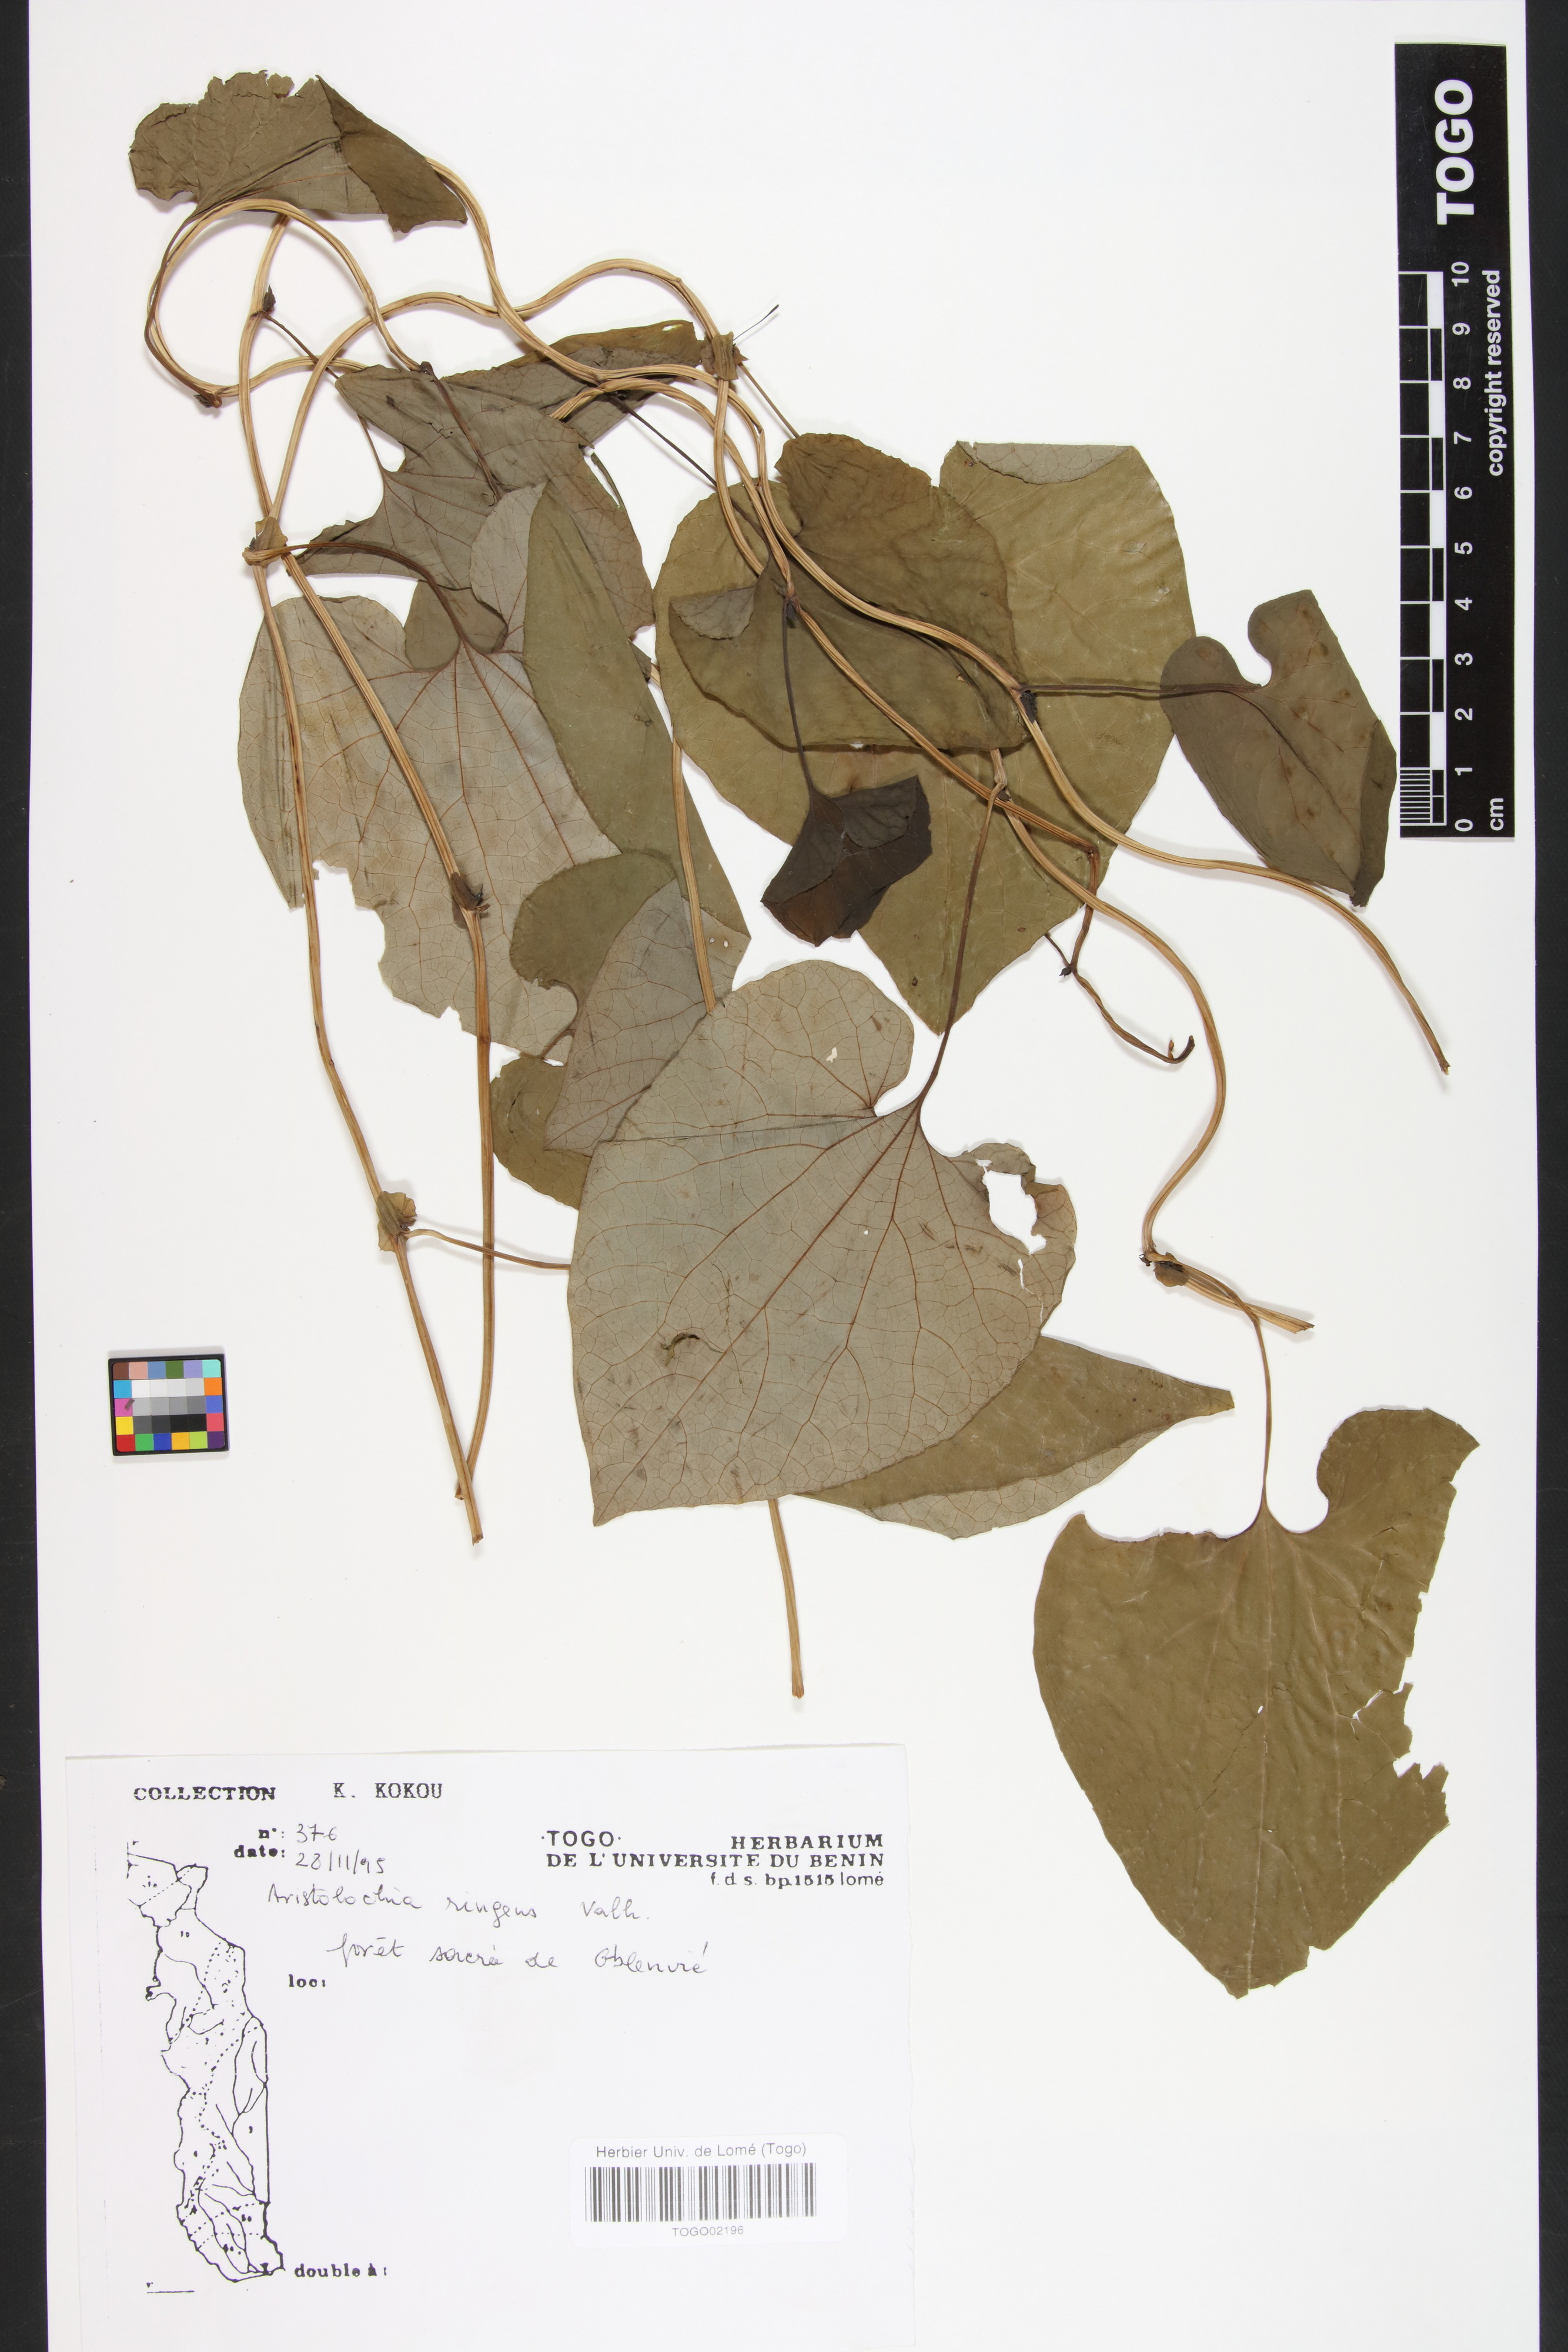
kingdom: Plantae
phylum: Tracheophyta
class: Magnoliopsida
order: Piperales
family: Aristolochiaceae
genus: Aristolochia
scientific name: Aristolochia albida
